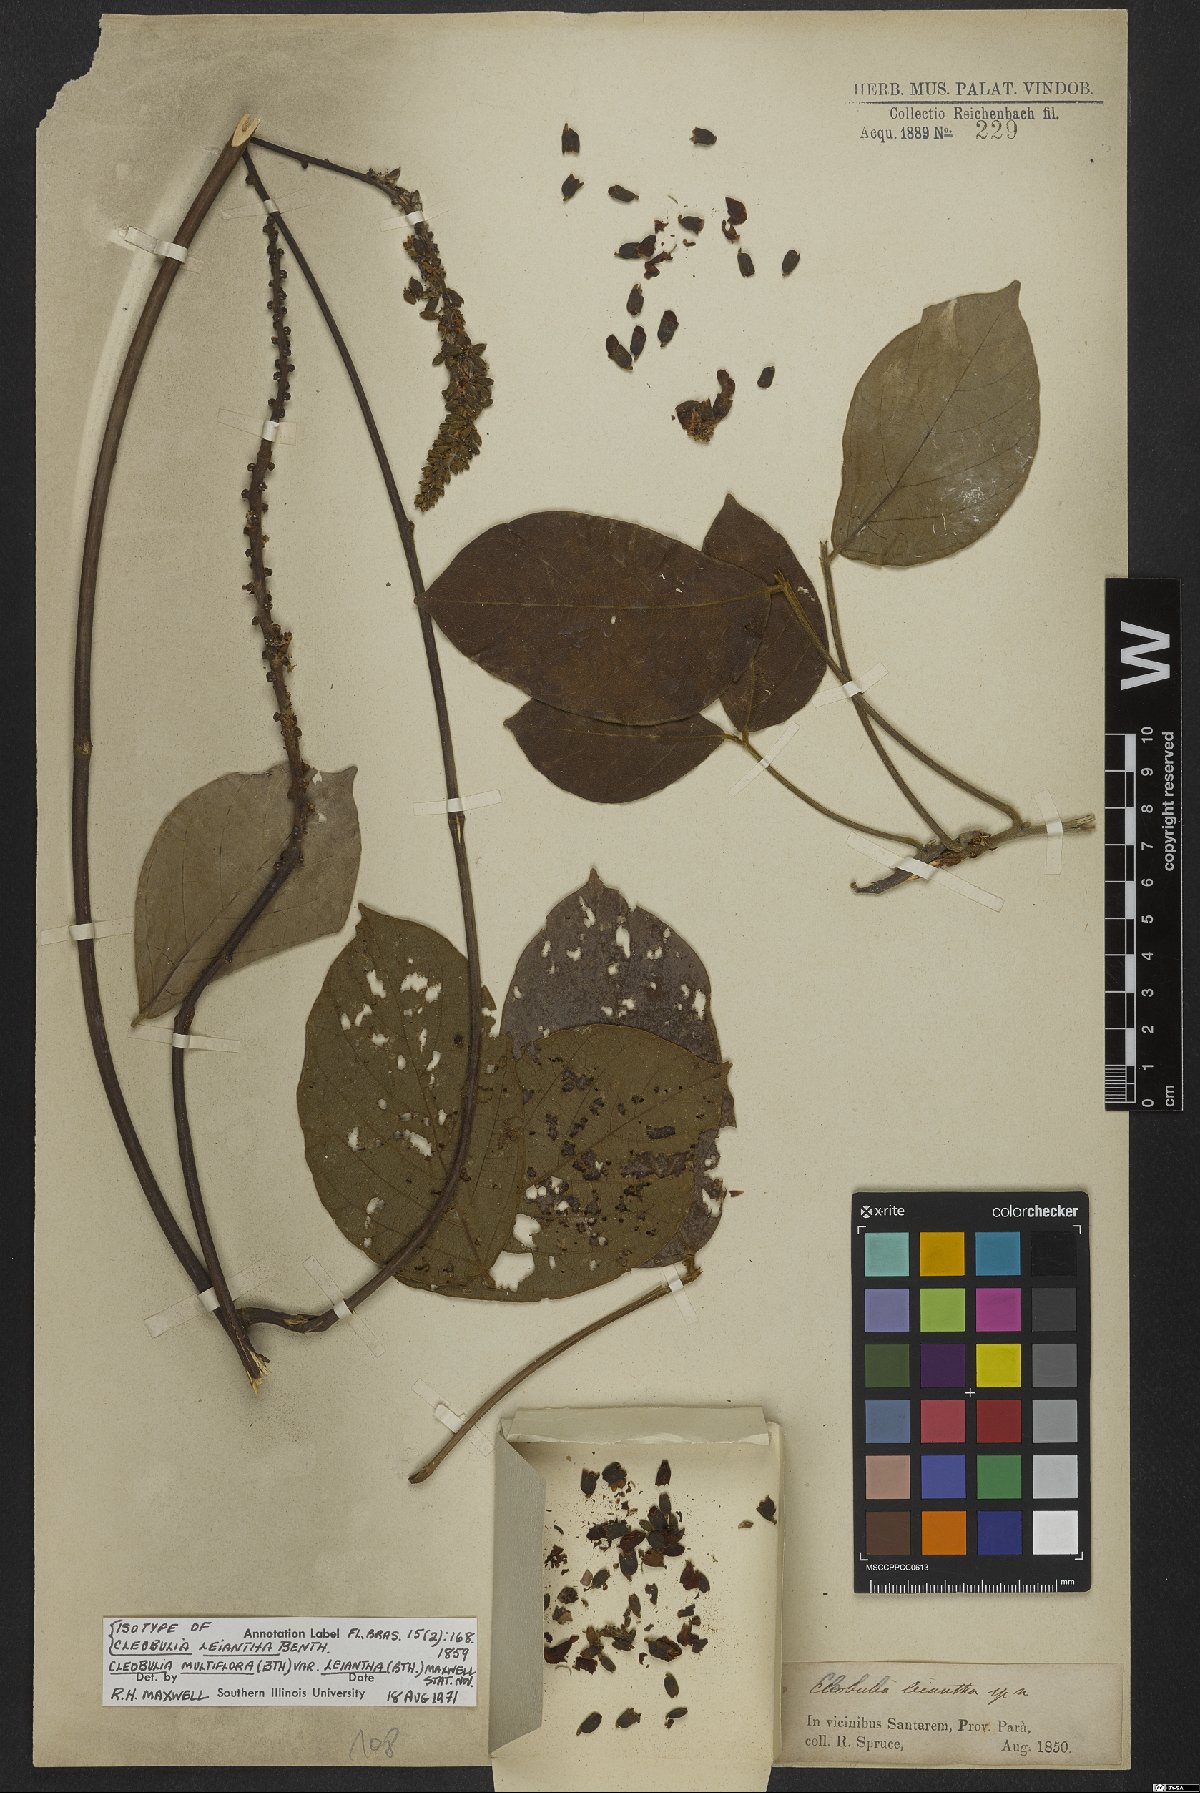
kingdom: Plantae
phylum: Tracheophyta
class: Magnoliopsida
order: Fabales
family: Fabaceae
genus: Cleobulia
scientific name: Cleobulia leiantha
